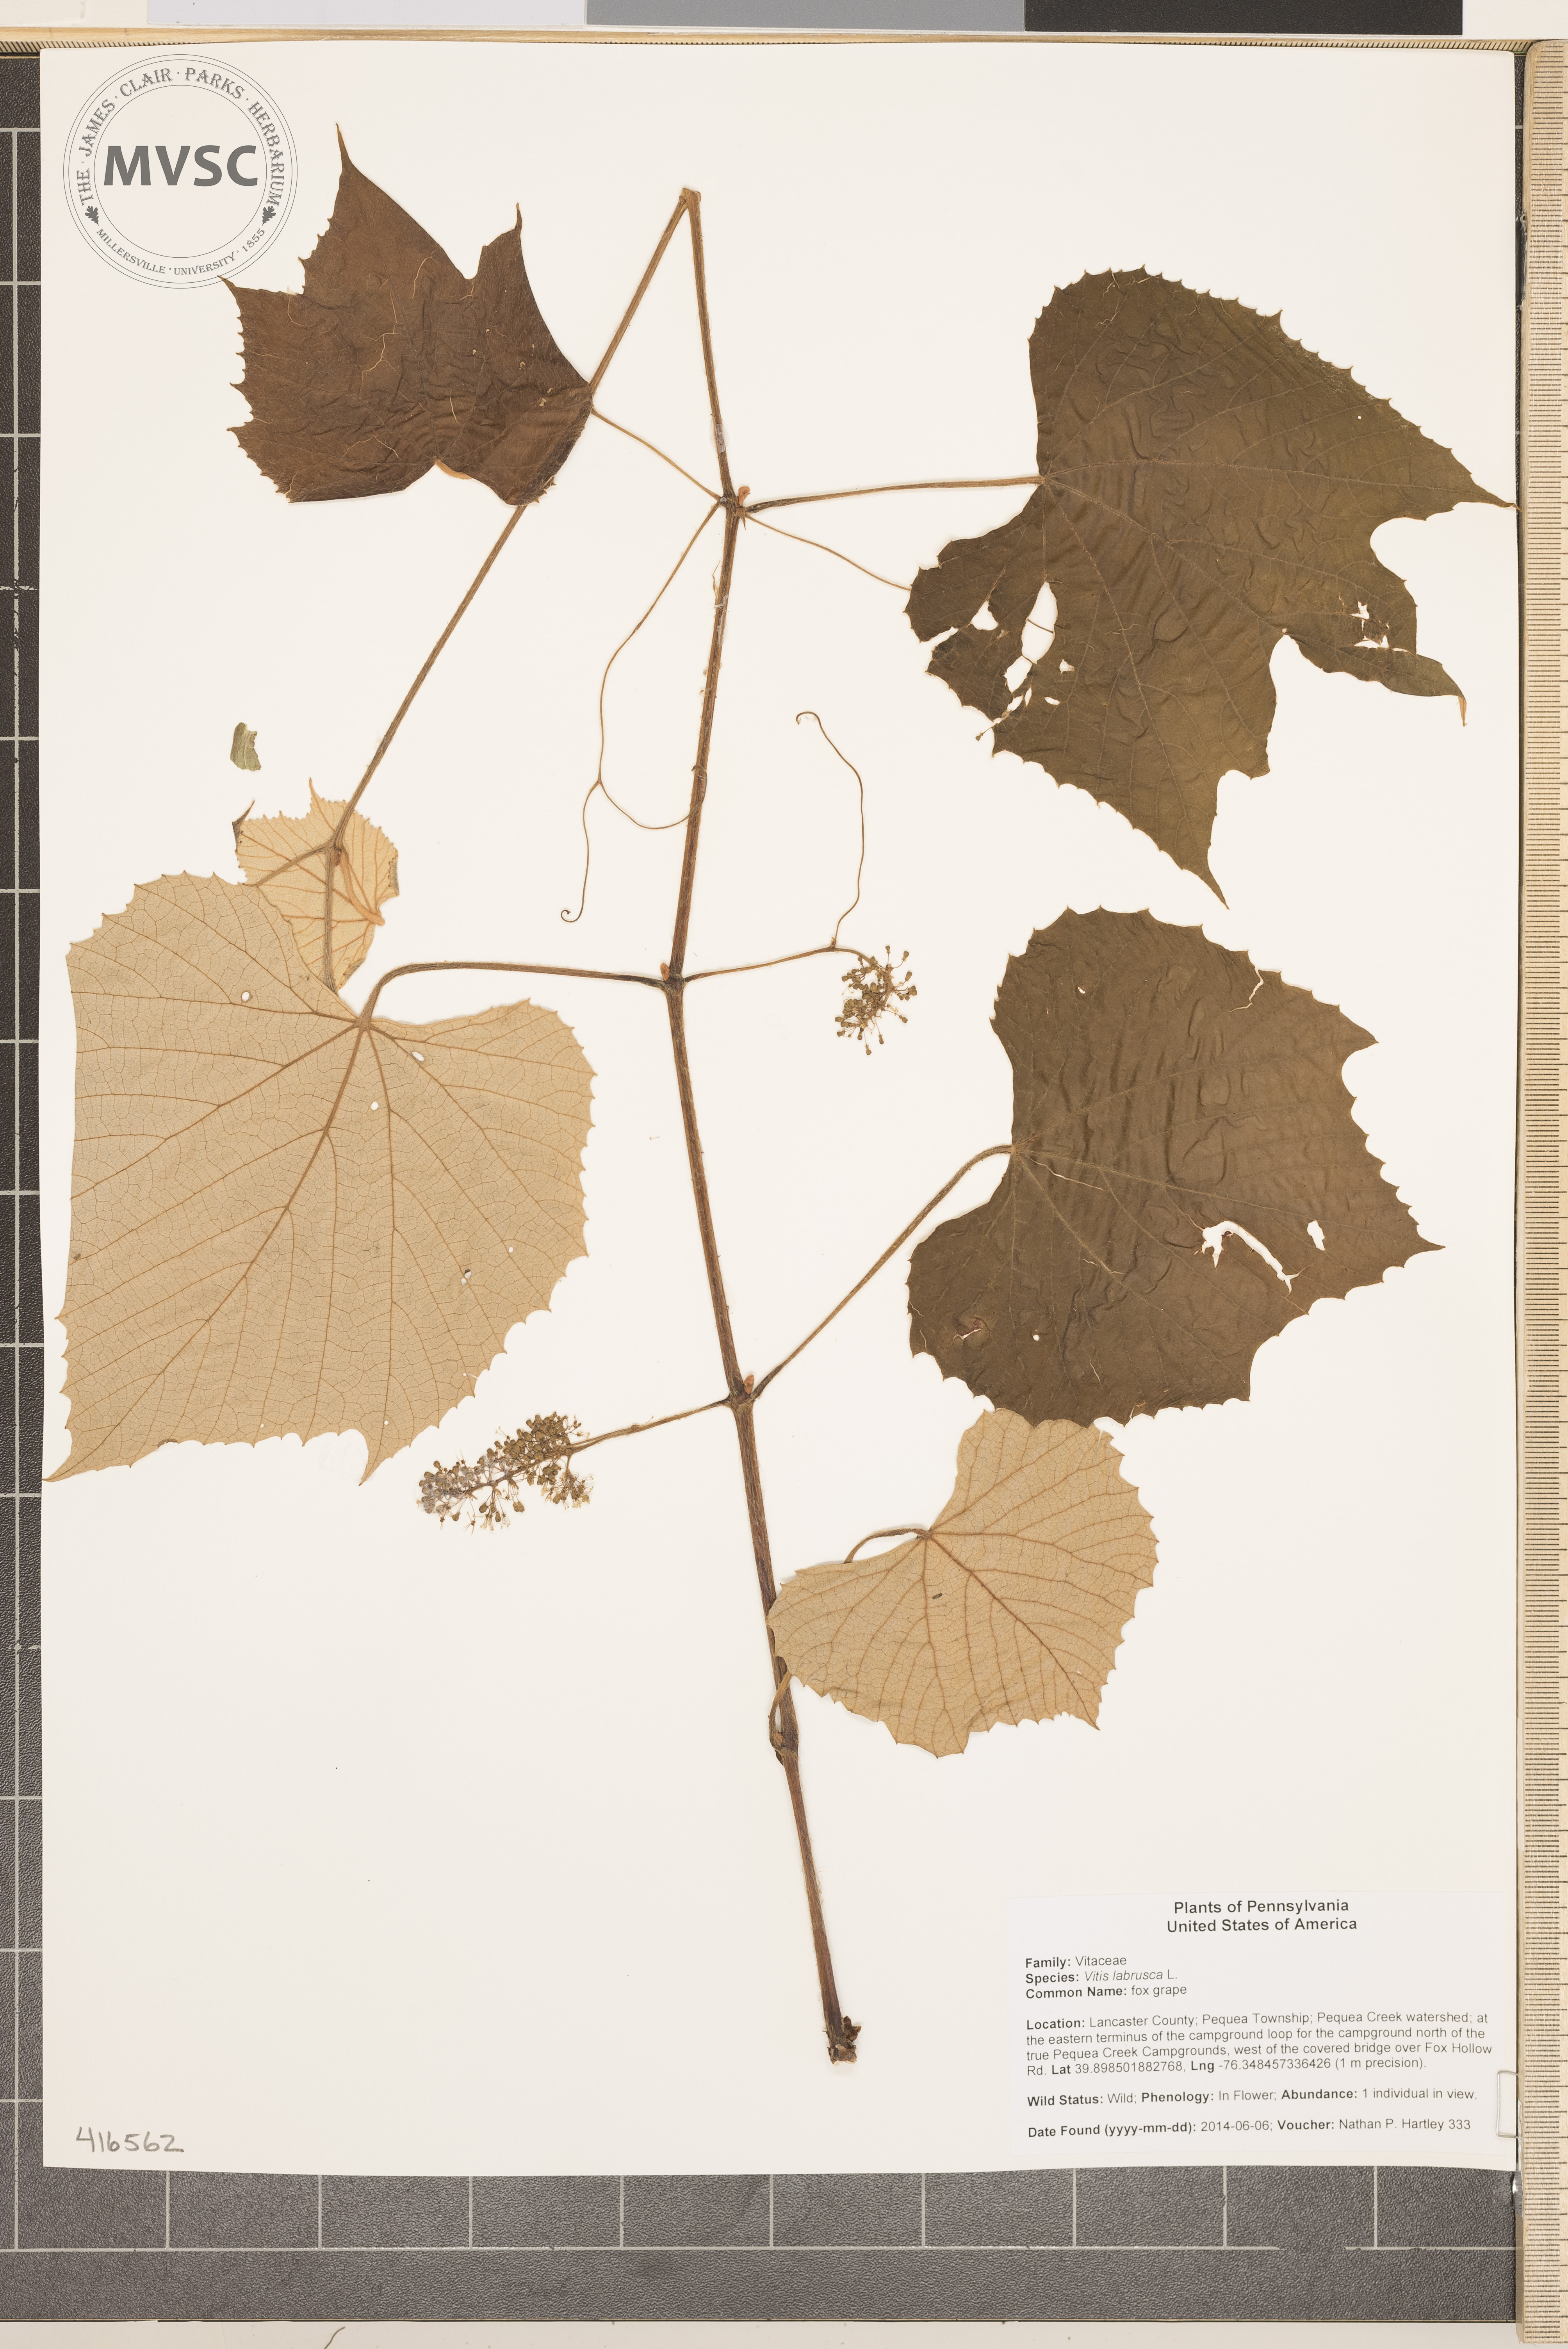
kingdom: Plantae
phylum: Tracheophyta
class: Magnoliopsida
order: Vitales
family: Vitaceae
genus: Vitis
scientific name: Vitis labrusca
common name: fox grape
